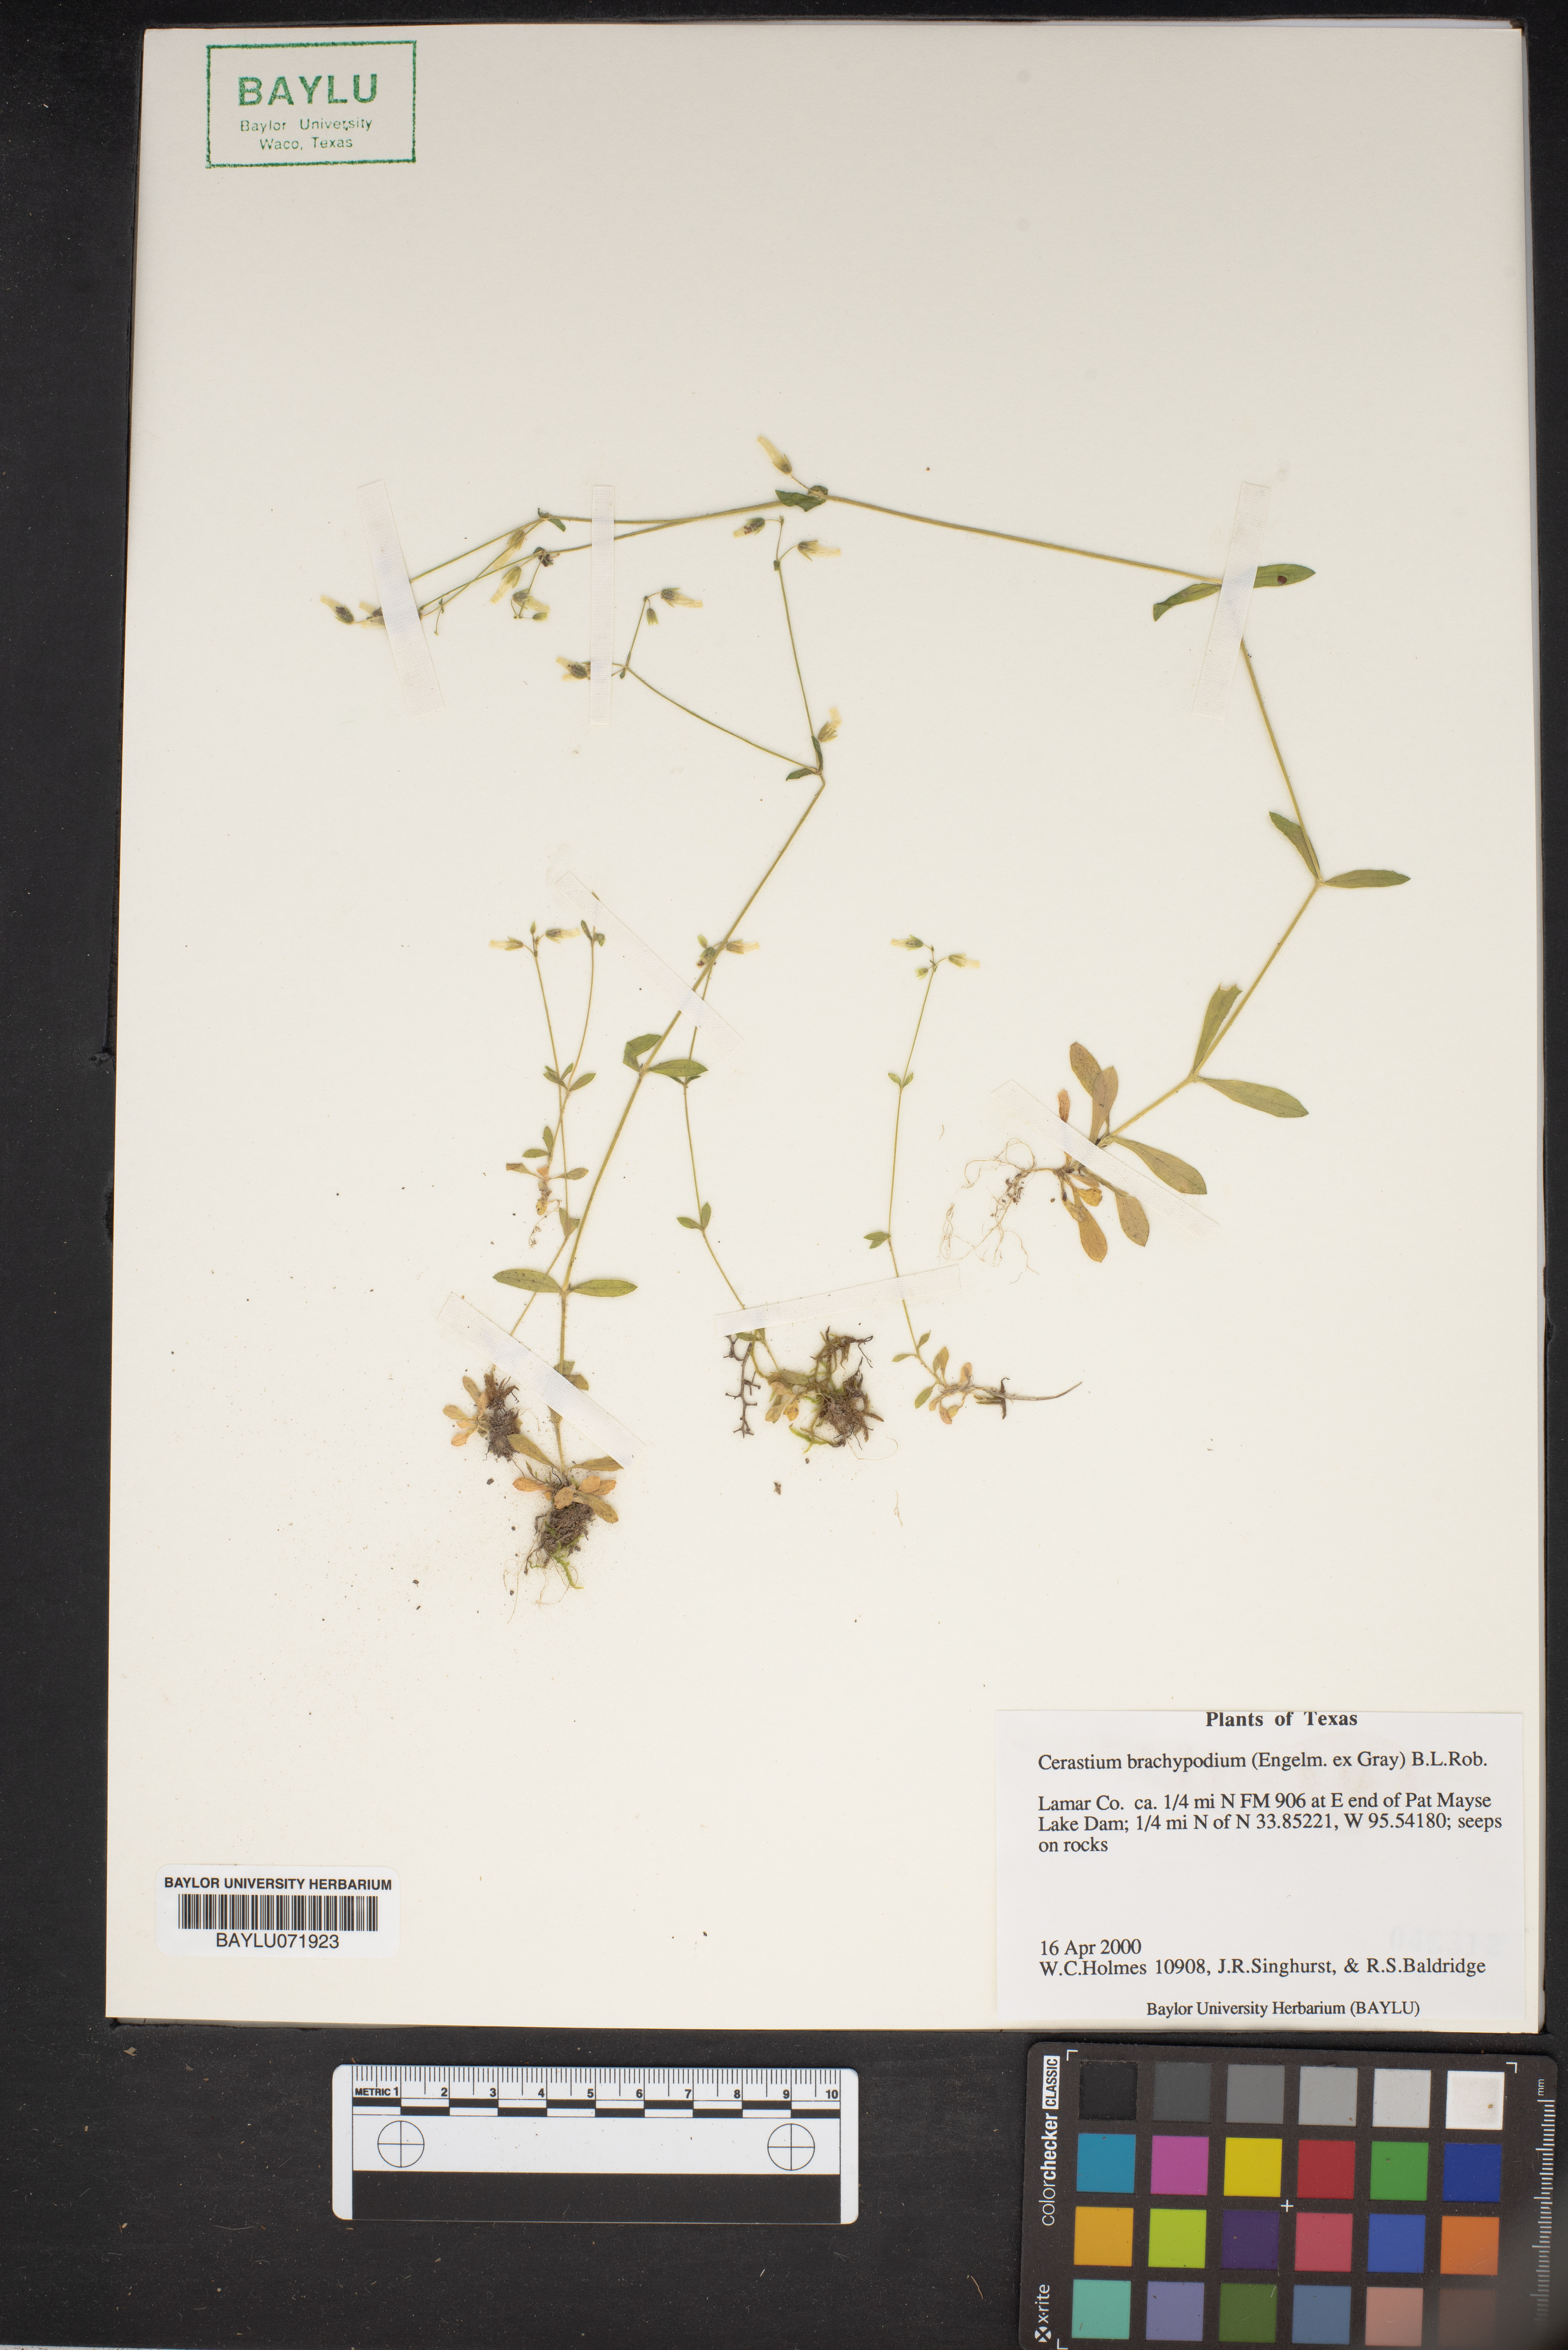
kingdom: Plantae
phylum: Tracheophyta
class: Magnoliopsida
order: Caryophyllales
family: Caryophyllaceae
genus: Cerastium
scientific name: Cerastium brachypodum
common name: Short-pedicelled nodding chickweed
